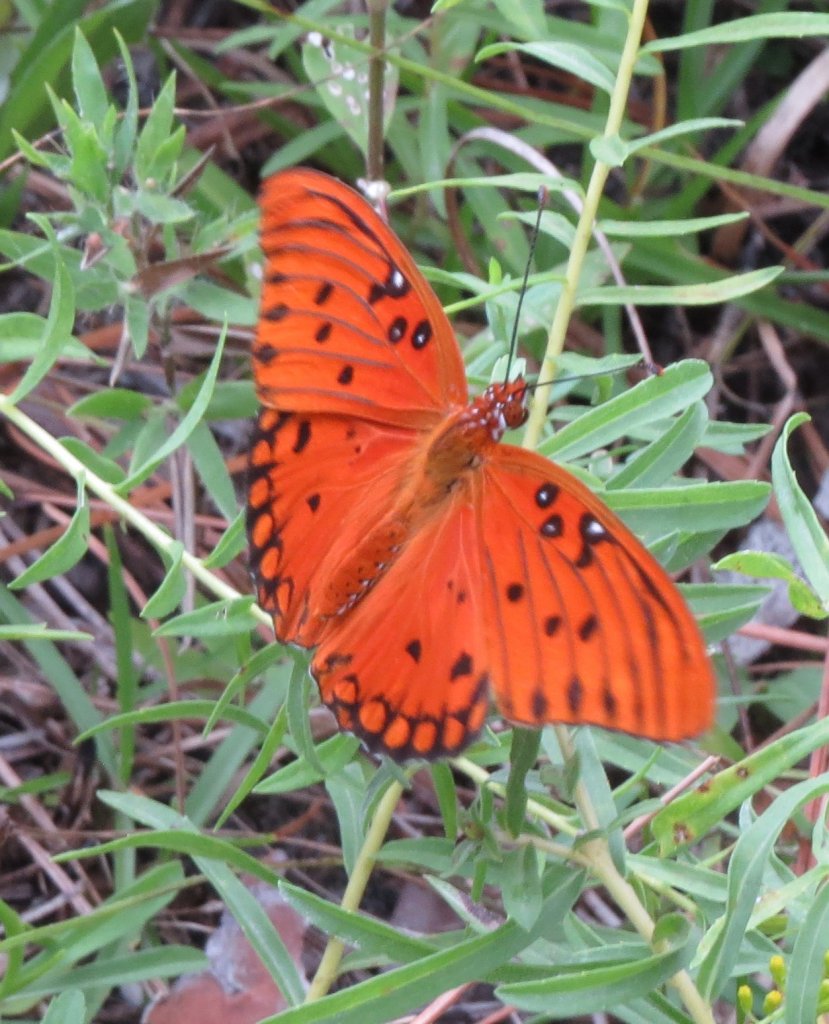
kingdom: Animalia
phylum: Arthropoda
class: Insecta
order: Lepidoptera
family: Nymphalidae
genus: Dione
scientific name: Dione vanillae
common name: Gulf Fritillary
